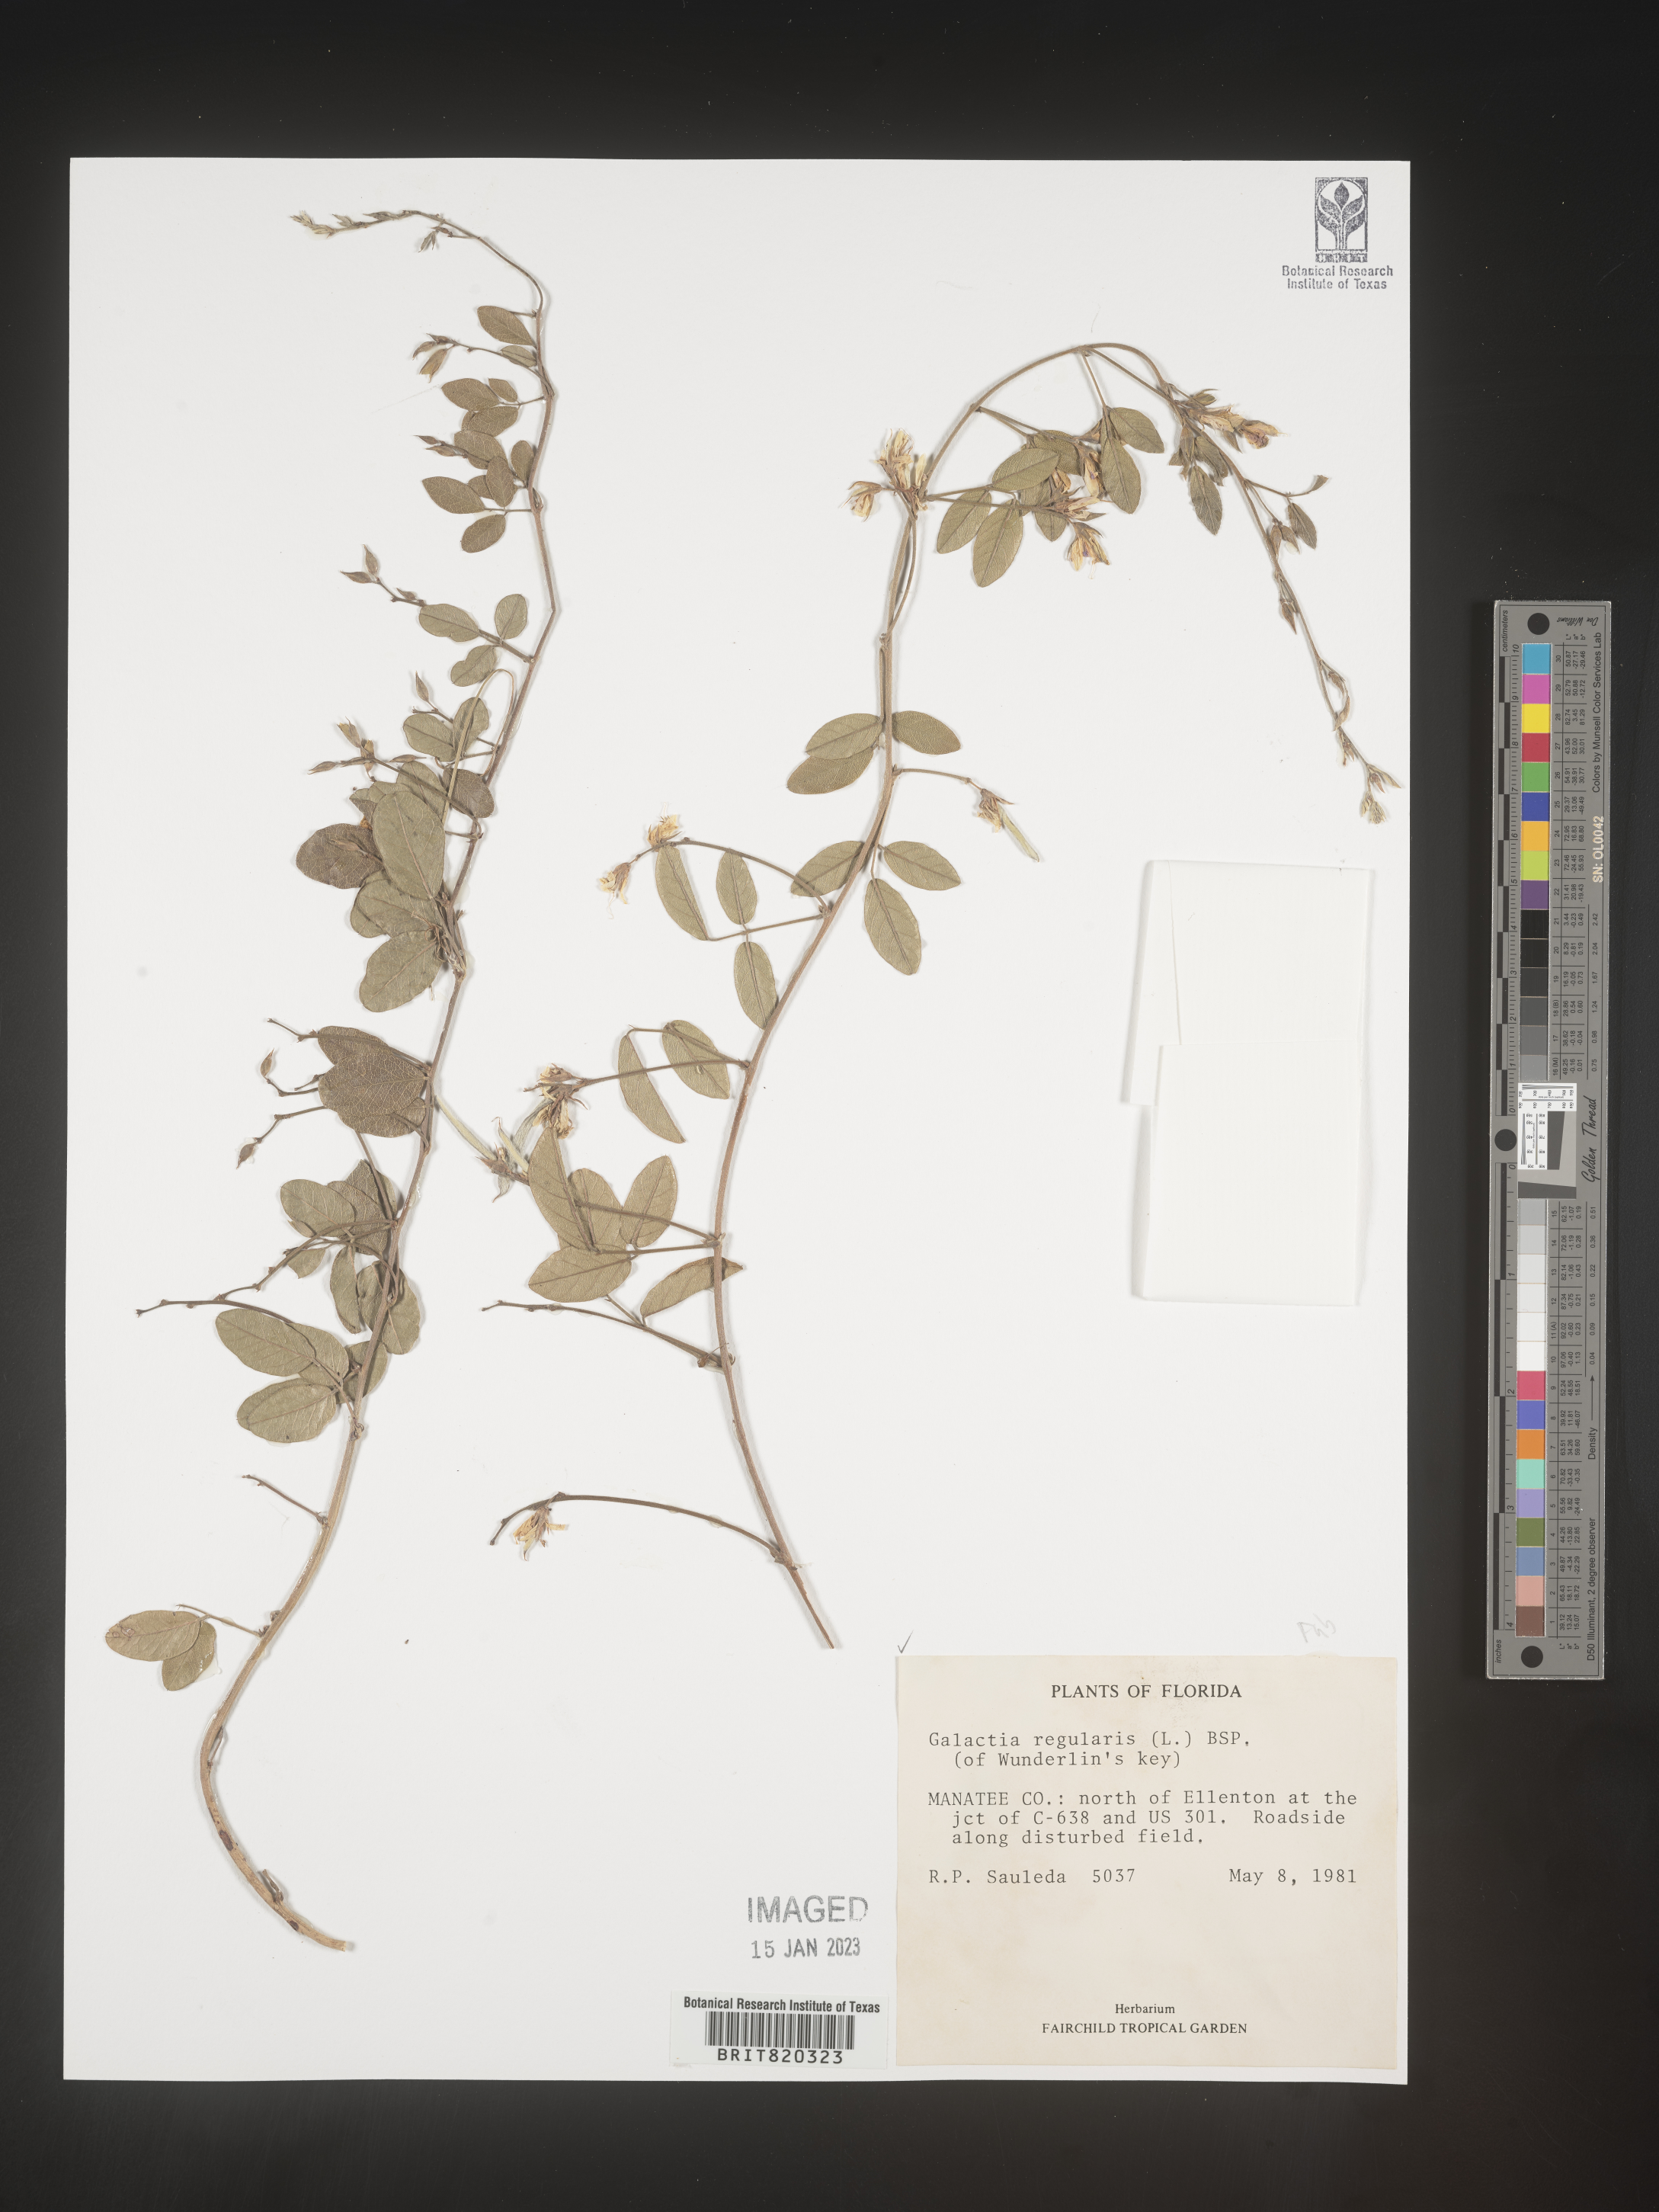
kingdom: Plantae
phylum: Tracheophyta
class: Magnoliopsida
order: Fabales
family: Fabaceae
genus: Galactia
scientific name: Galactia regularis
